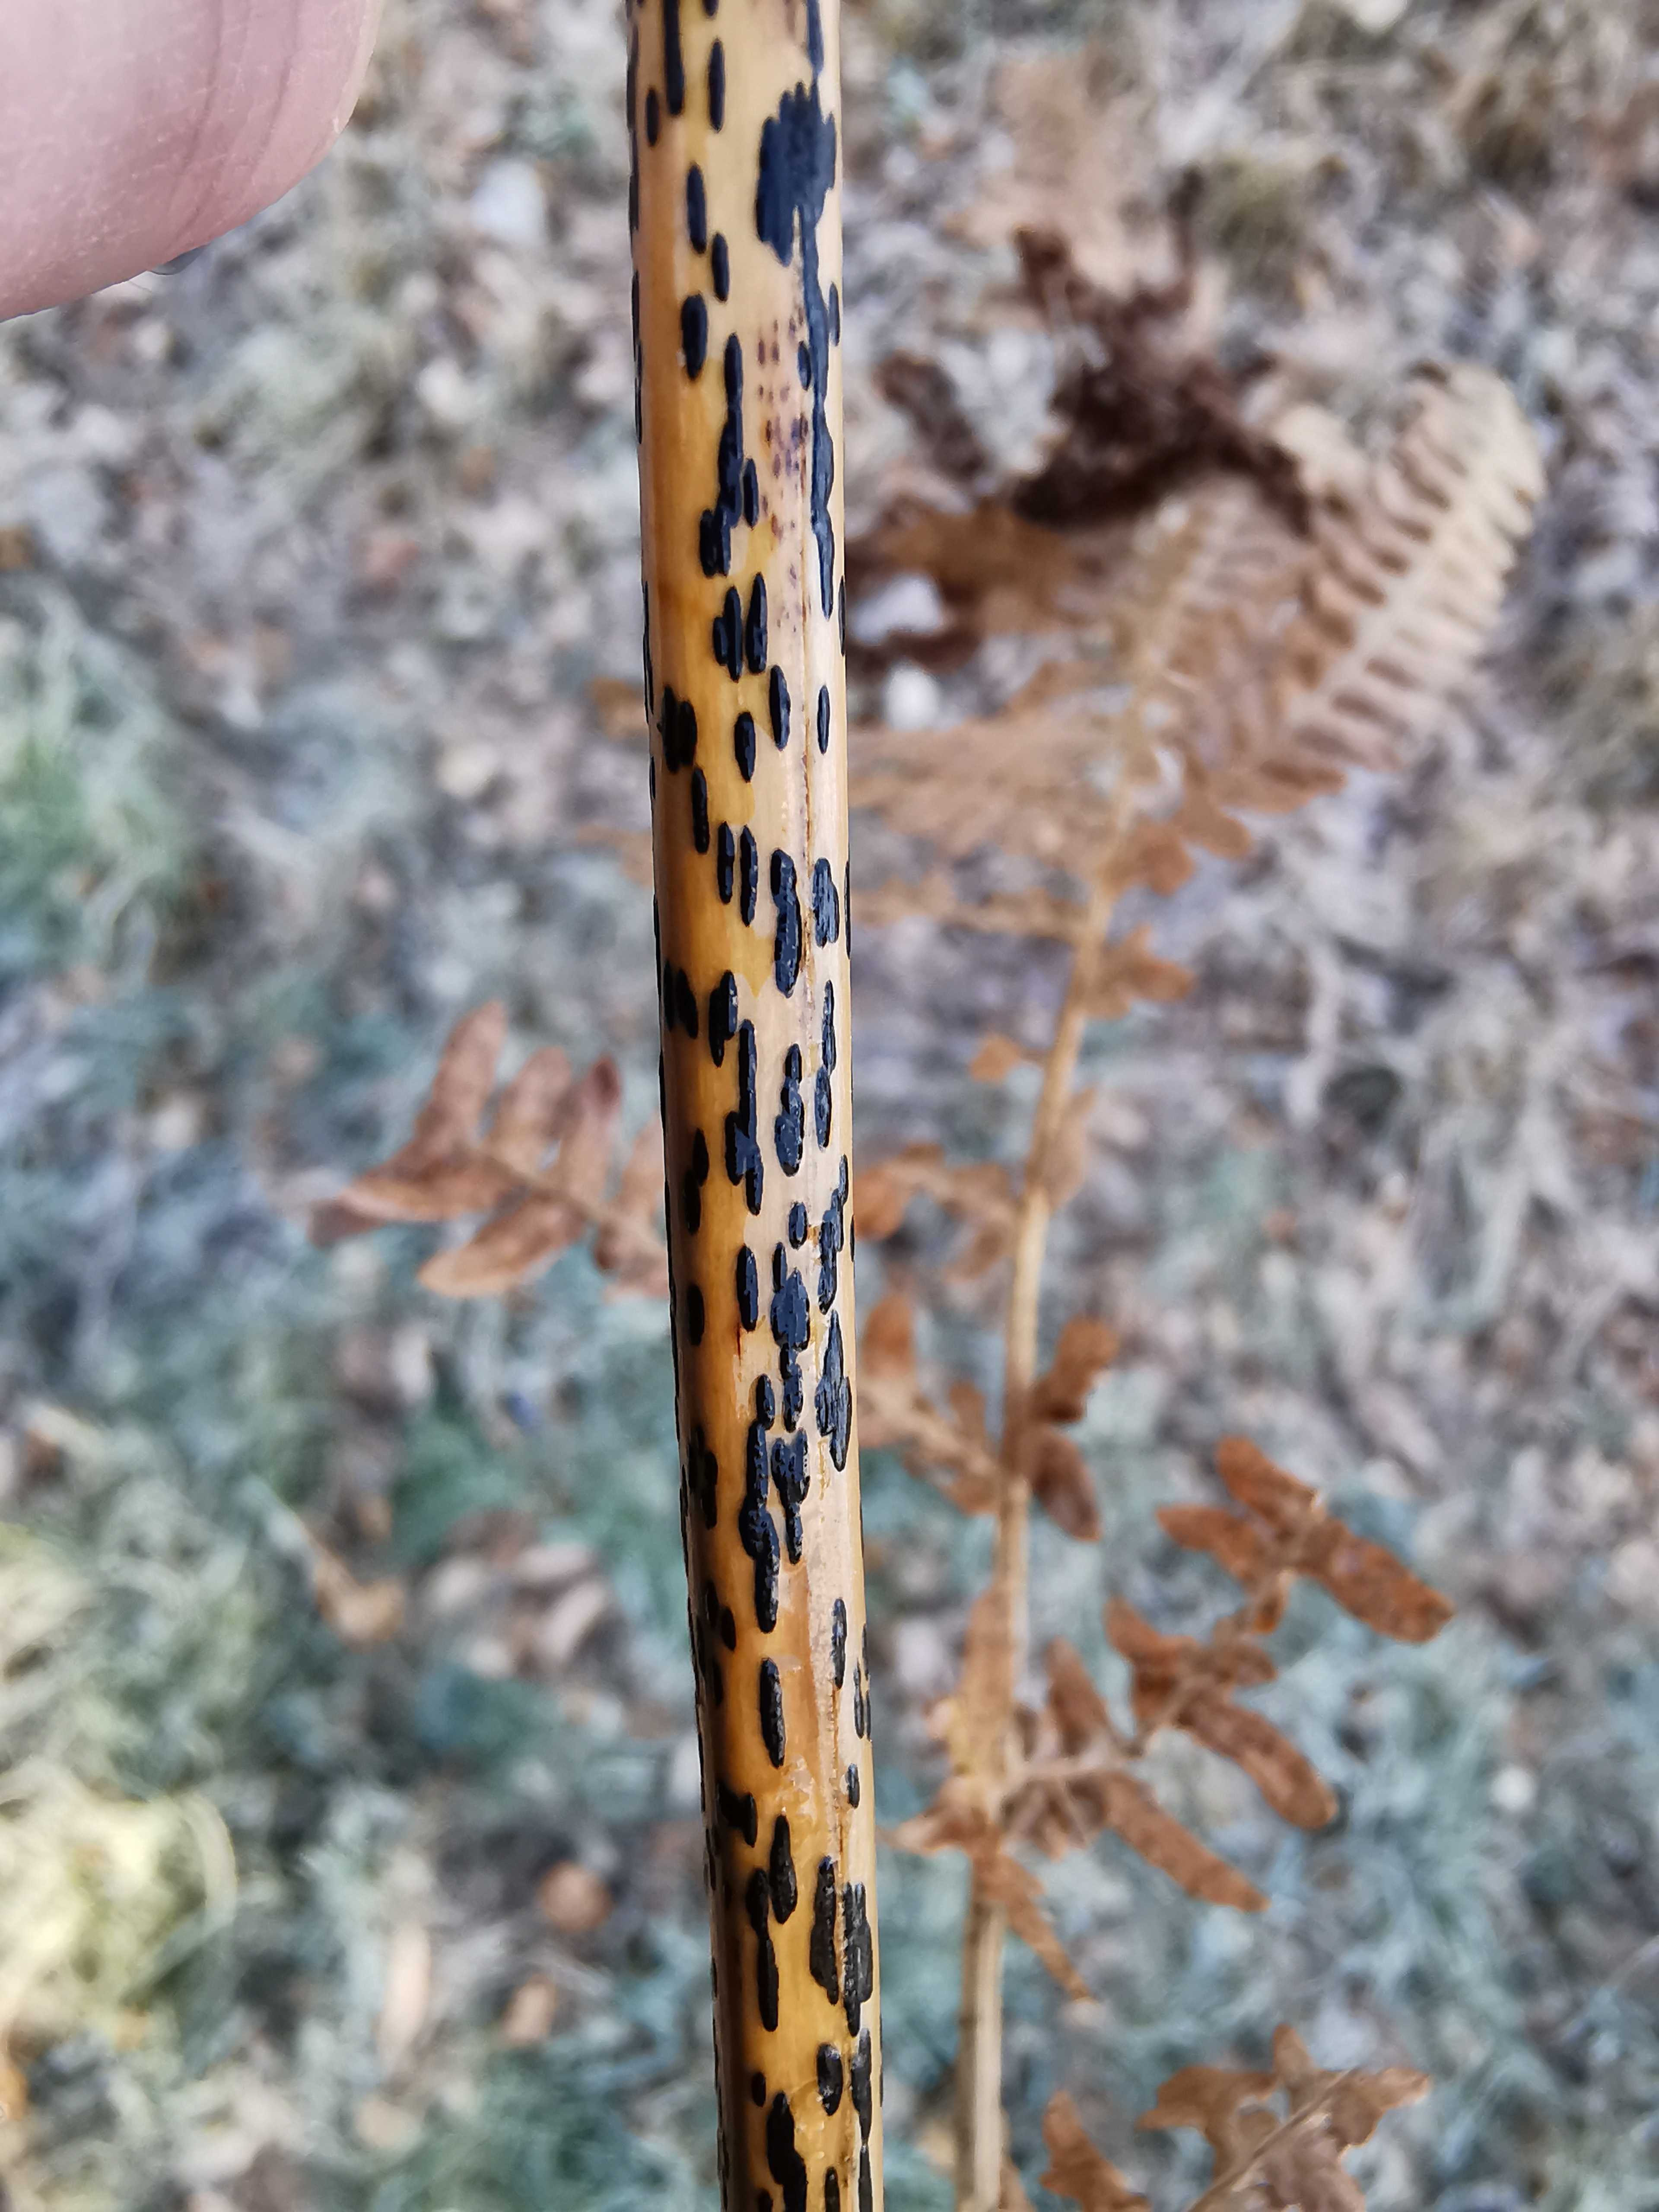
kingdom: Fungi
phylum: Ascomycota
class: Dothideomycetes
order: Pleosporales
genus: Rhopographus
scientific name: Rhopographus filicinus
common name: Bracken map
